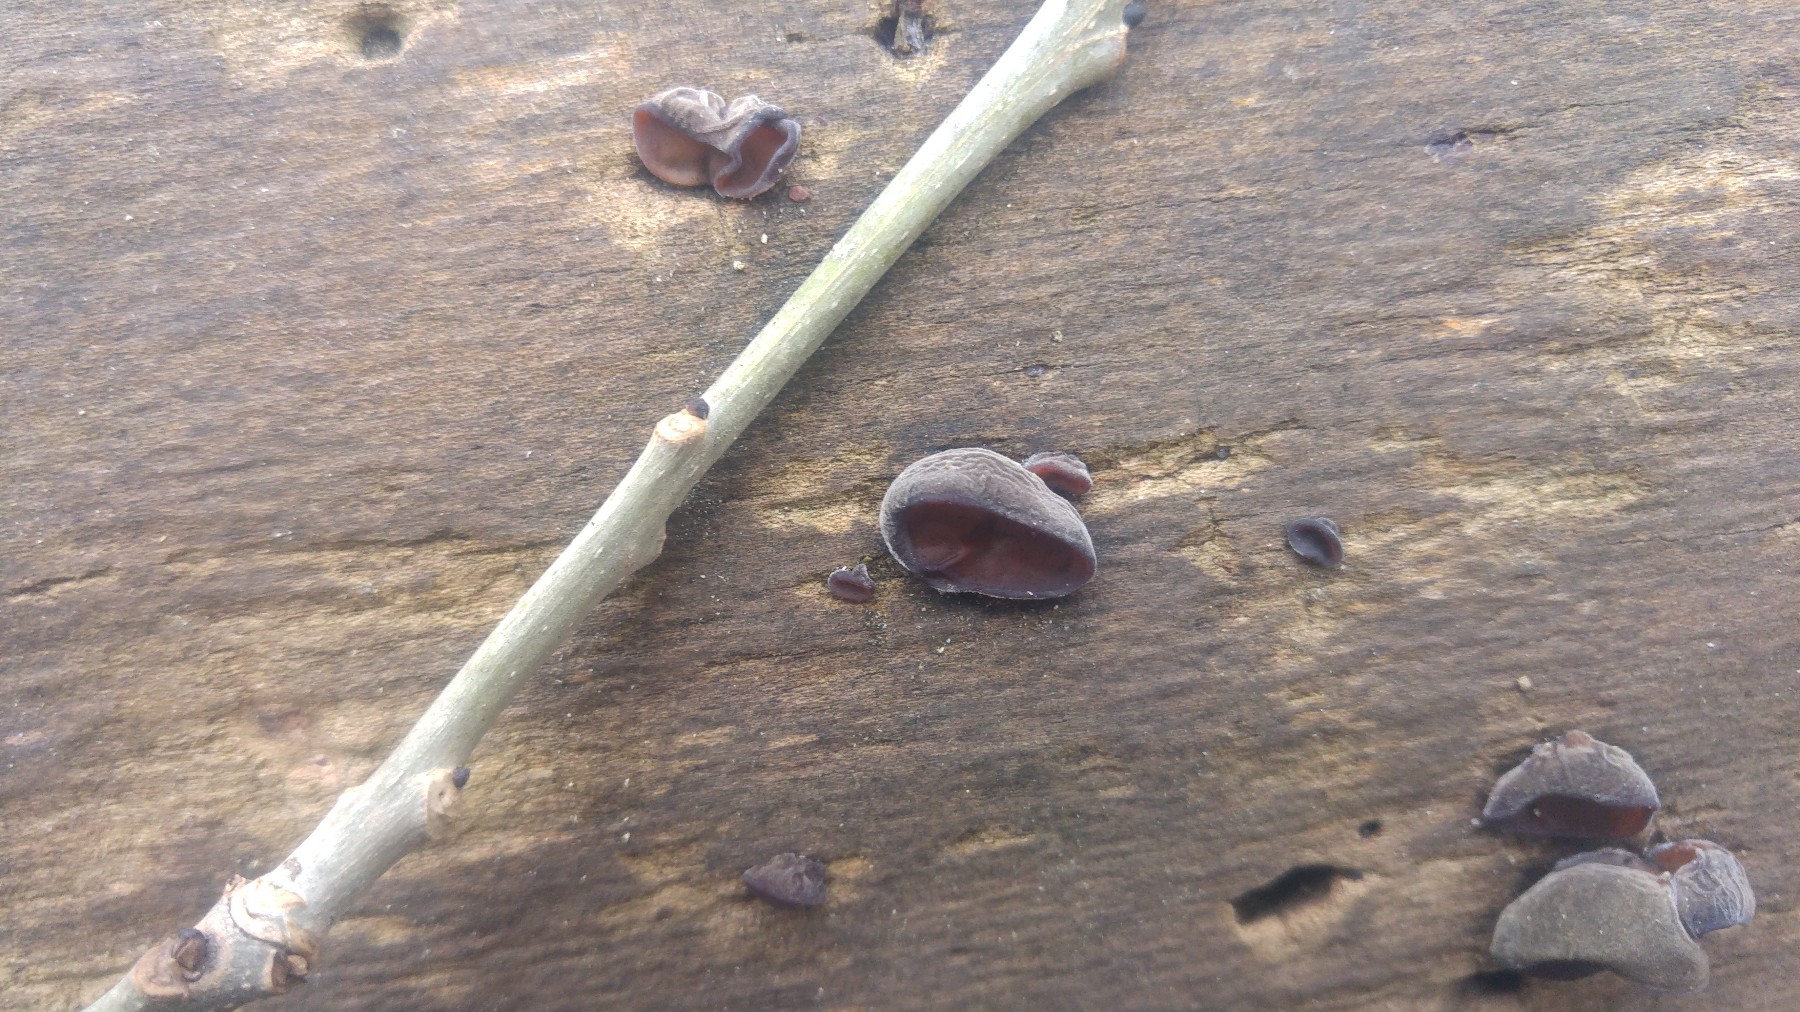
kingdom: Fungi
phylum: Basidiomycota
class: Agaricomycetes
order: Auriculariales
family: Auriculariaceae
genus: Auricularia
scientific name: Auricularia auricula-judae
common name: almindelig judasøre
